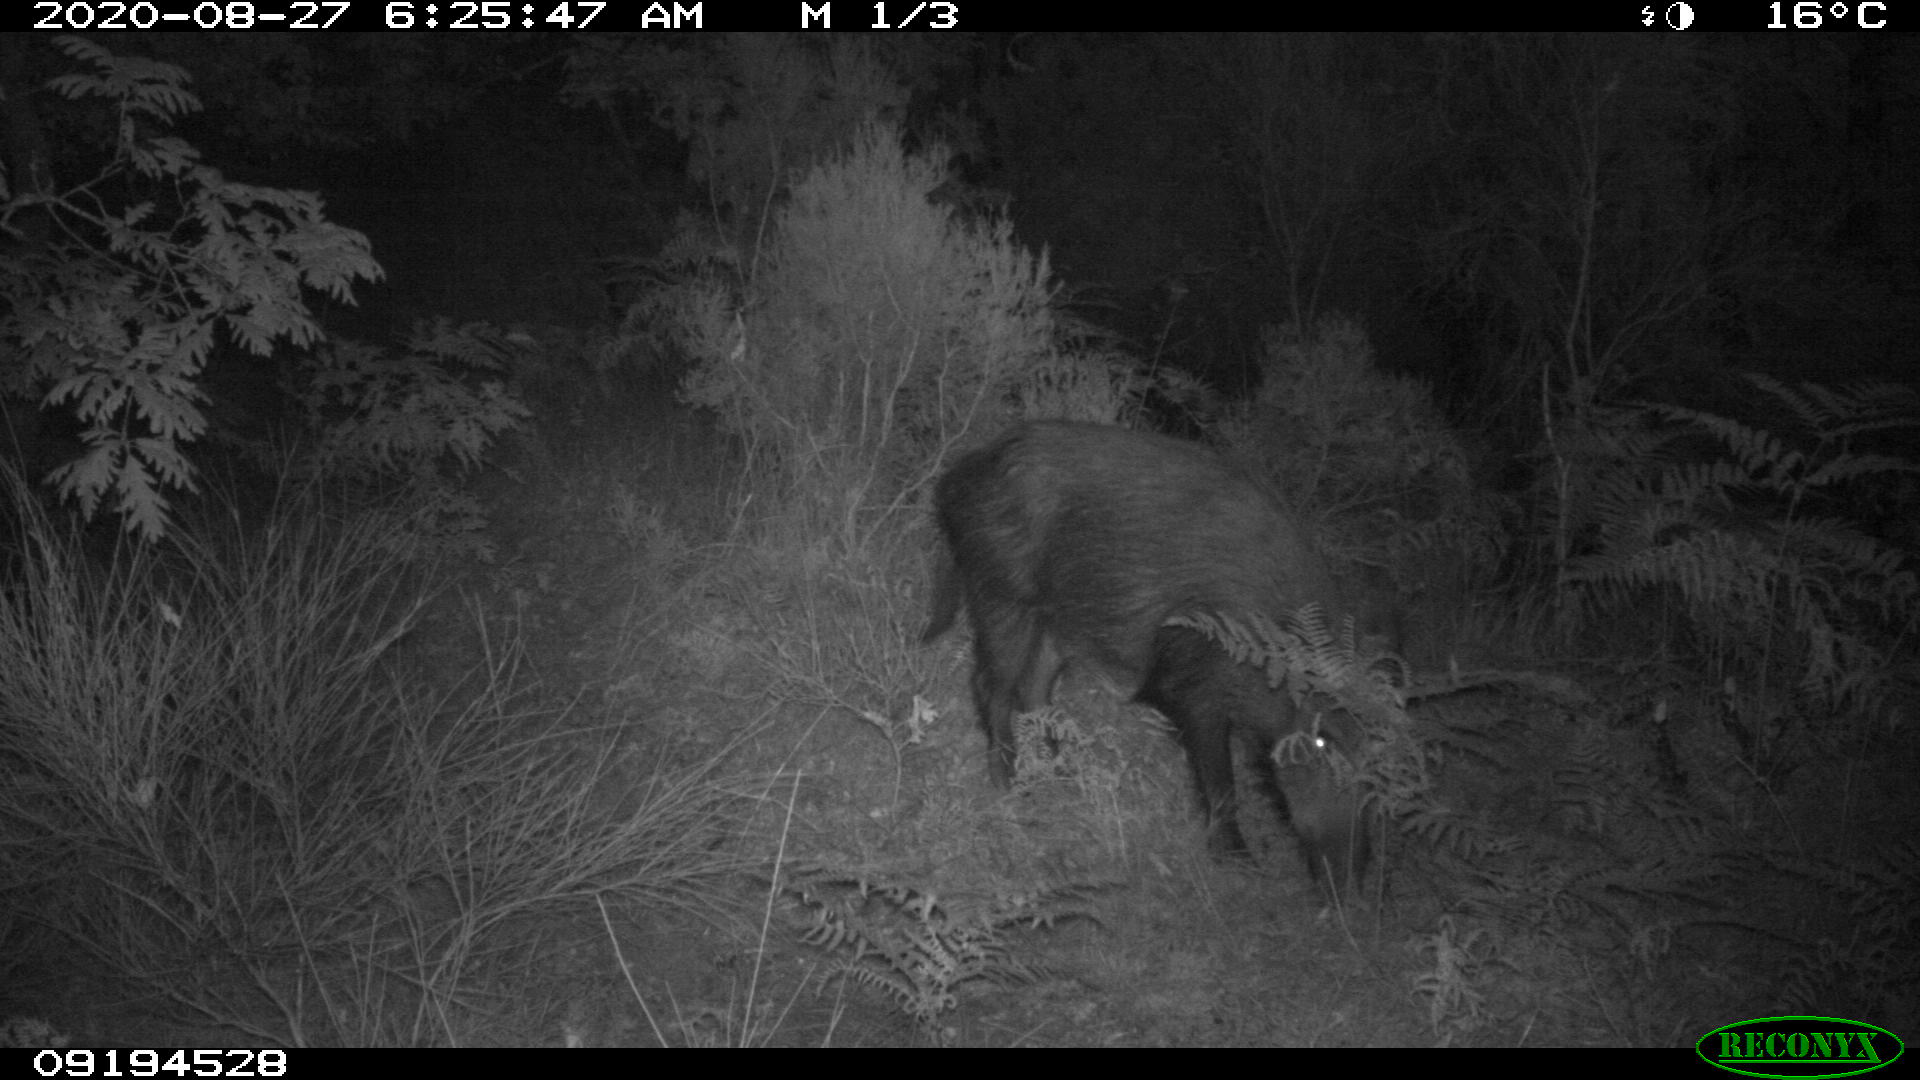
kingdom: Animalia
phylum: Chordata
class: Mammalia
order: Artiodactyla
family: Suidae
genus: Sus
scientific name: Sus scrofa
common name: Wild boar
